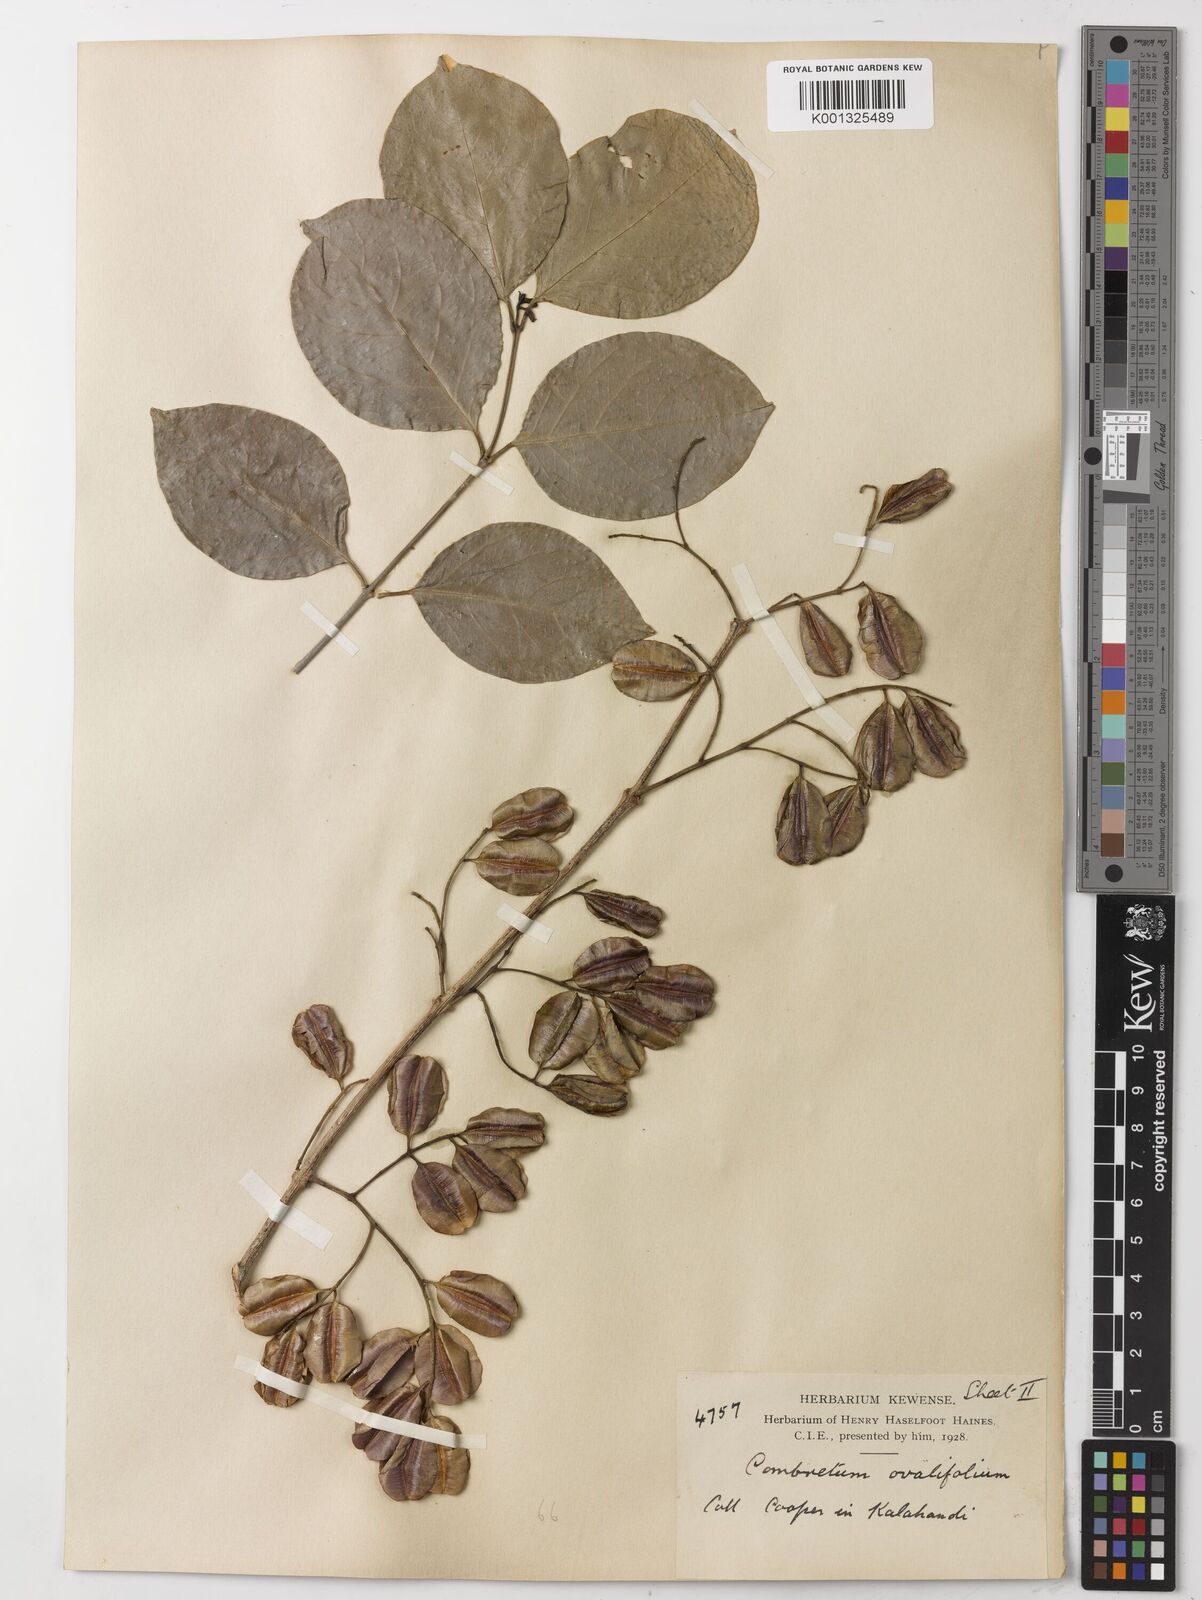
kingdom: Plantae
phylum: Tracheophyta
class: Magnoliopsida
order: Myrtales
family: Combretaceae
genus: Combretum
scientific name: Combretum albidum
